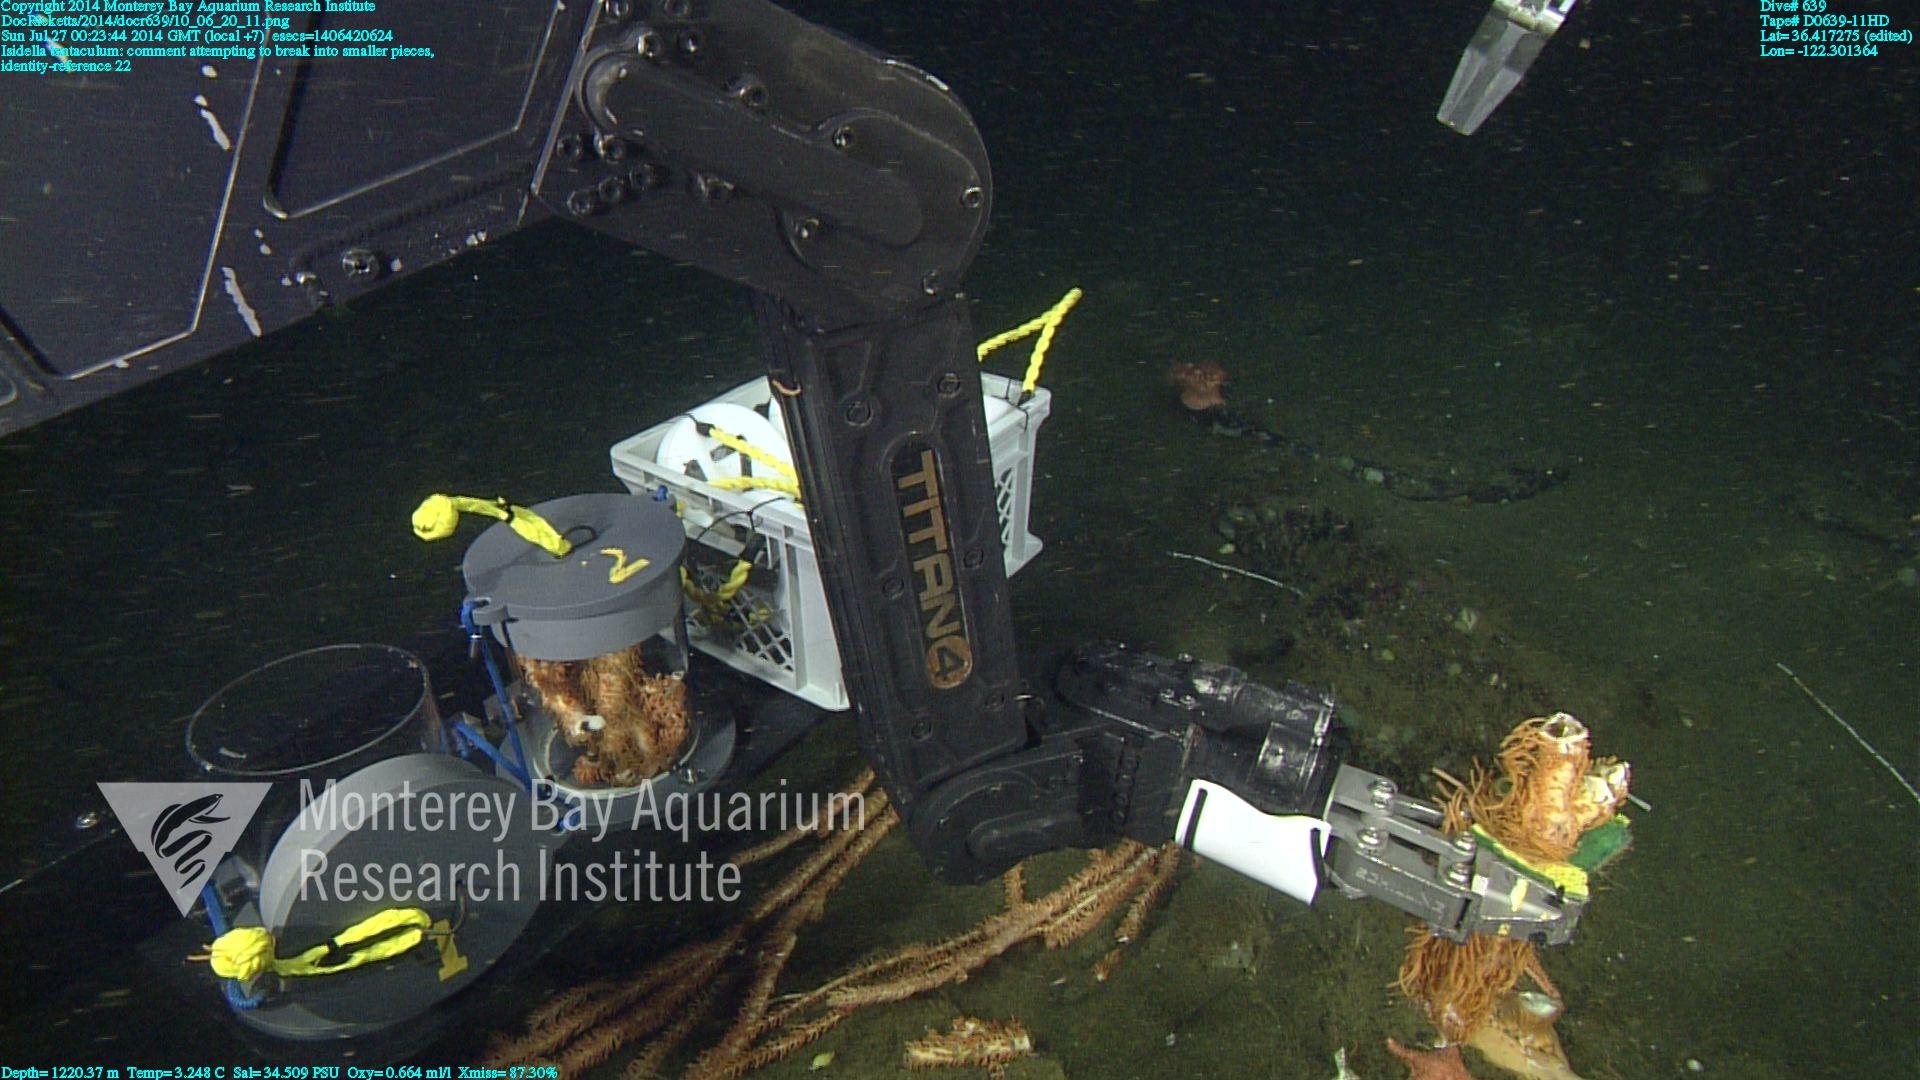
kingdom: Animalia
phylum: Cnidaria
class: Anthozoa
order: Scleralcyonacea
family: Keratoisididae
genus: Isidella
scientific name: Isidella tentaculum
